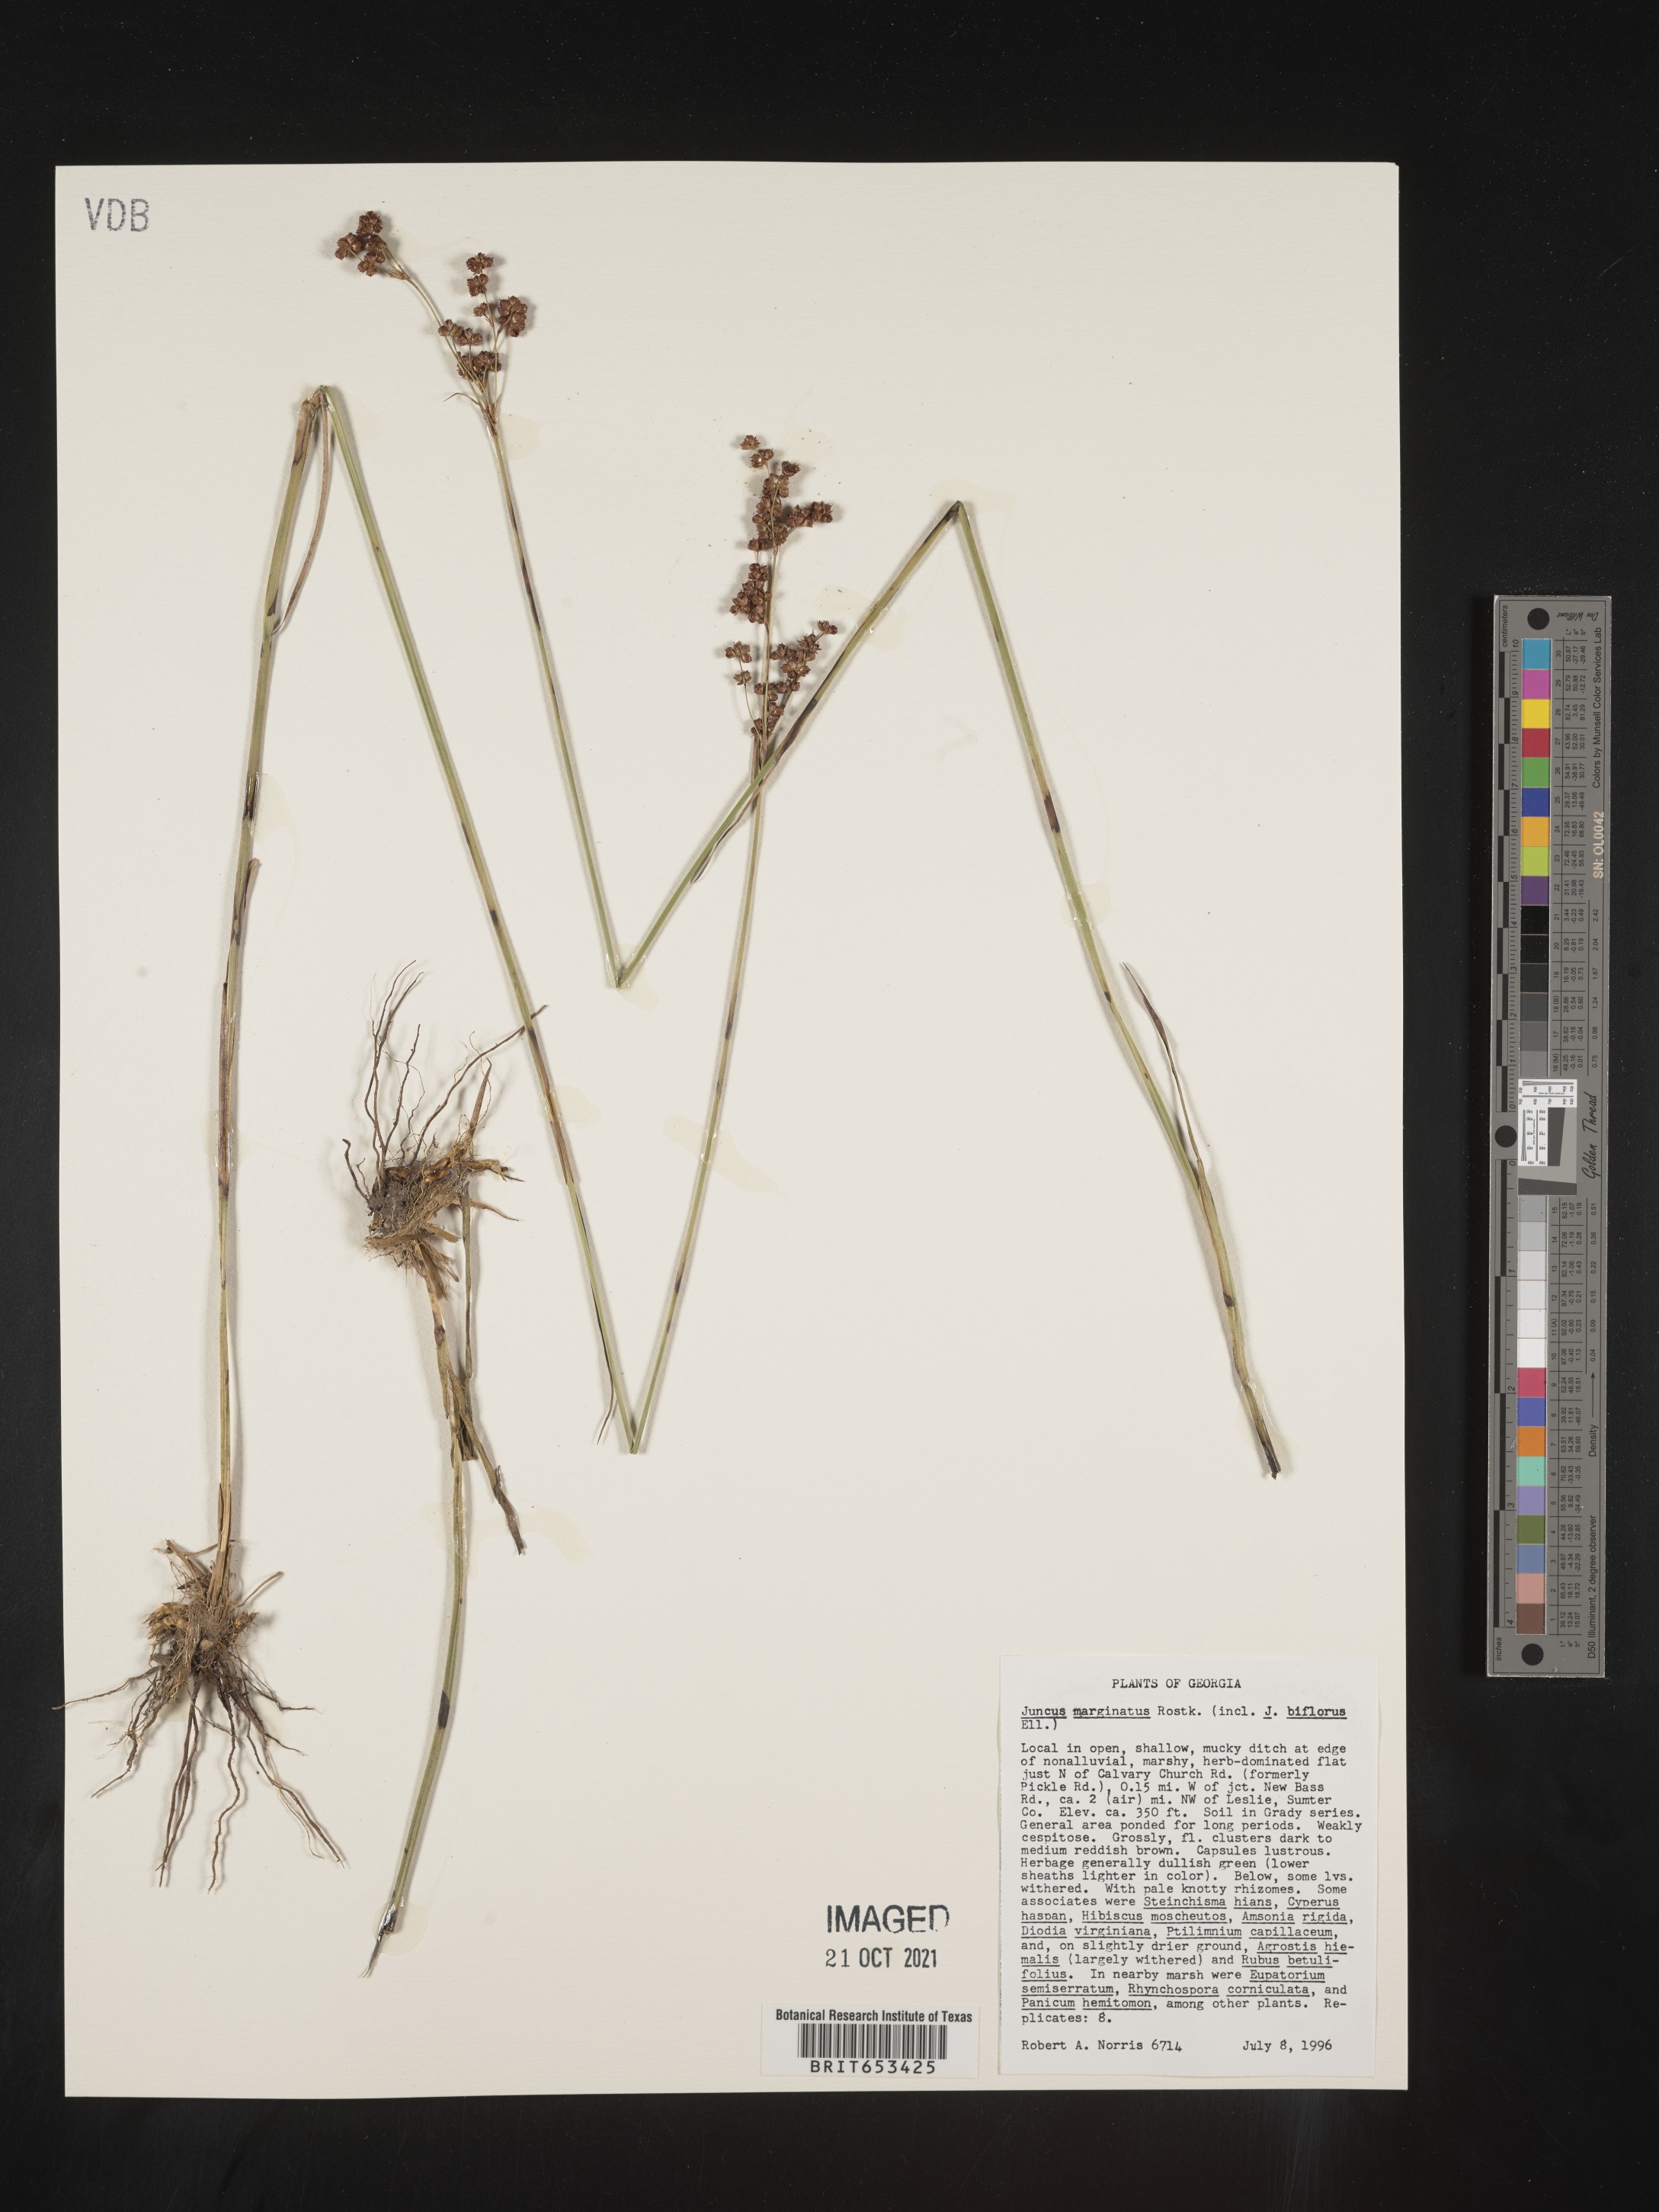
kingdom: Plantae
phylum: Tracheophyta
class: Liliopsida
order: Poales
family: Juncaceae
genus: Juncus
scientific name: Juncus marginatus
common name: Grass-leaf rush
